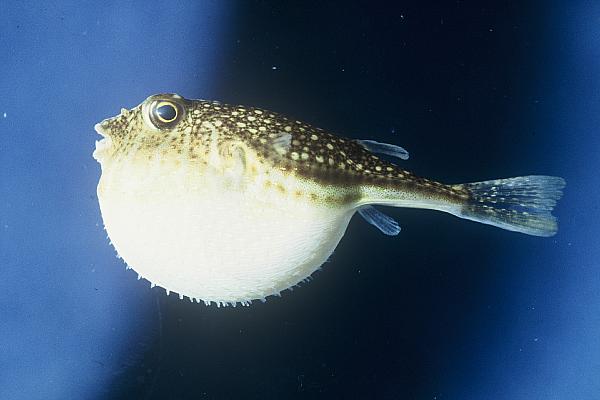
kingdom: Animalia
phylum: Chordata
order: Tetraodontiformes
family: Tetraodontidae
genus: Torquigener
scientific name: Torquigener flavimaculosus
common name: Studded pufferfish
